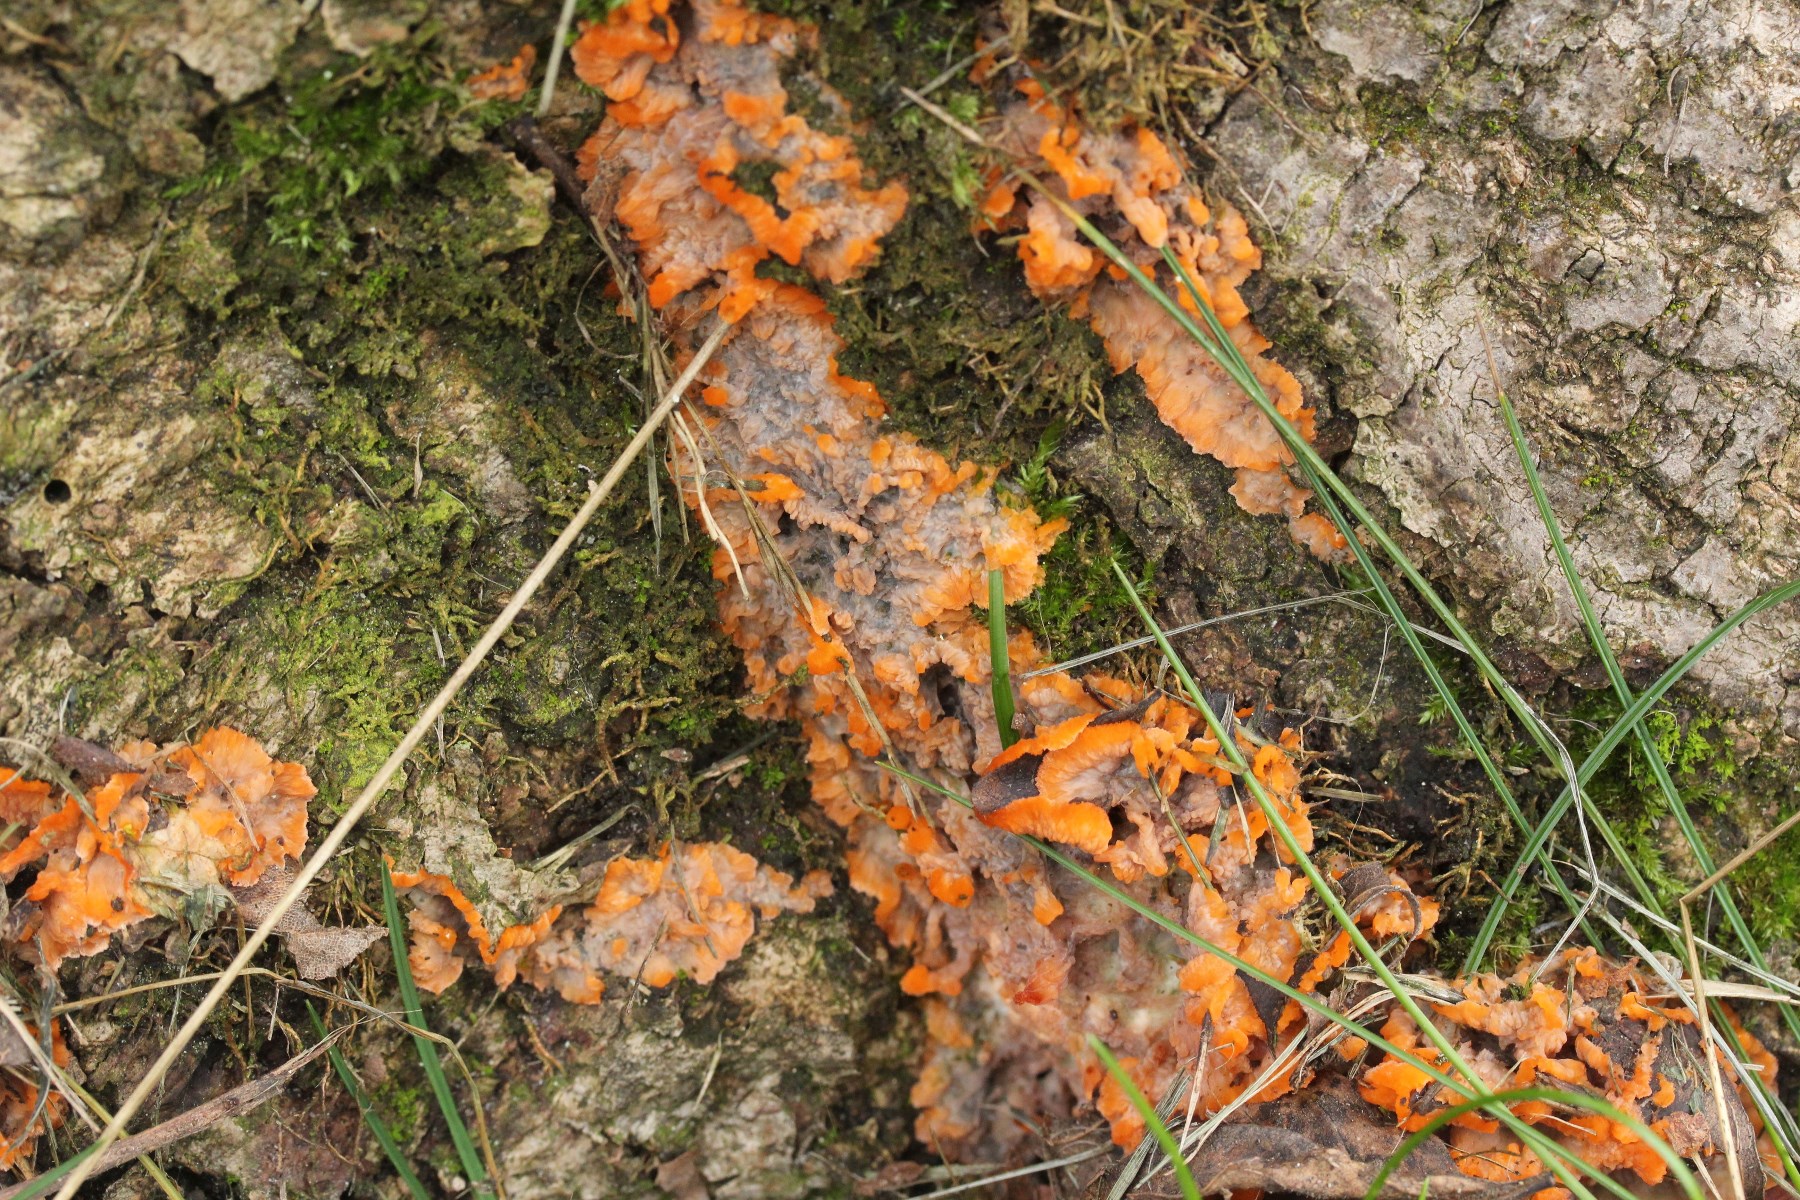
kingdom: Fungi
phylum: Basidiomycota
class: Agaricomycetes
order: Polyporales
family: Meruliaceae
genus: Phlebia
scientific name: Phlebia radiata
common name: stråle-åresvamp
